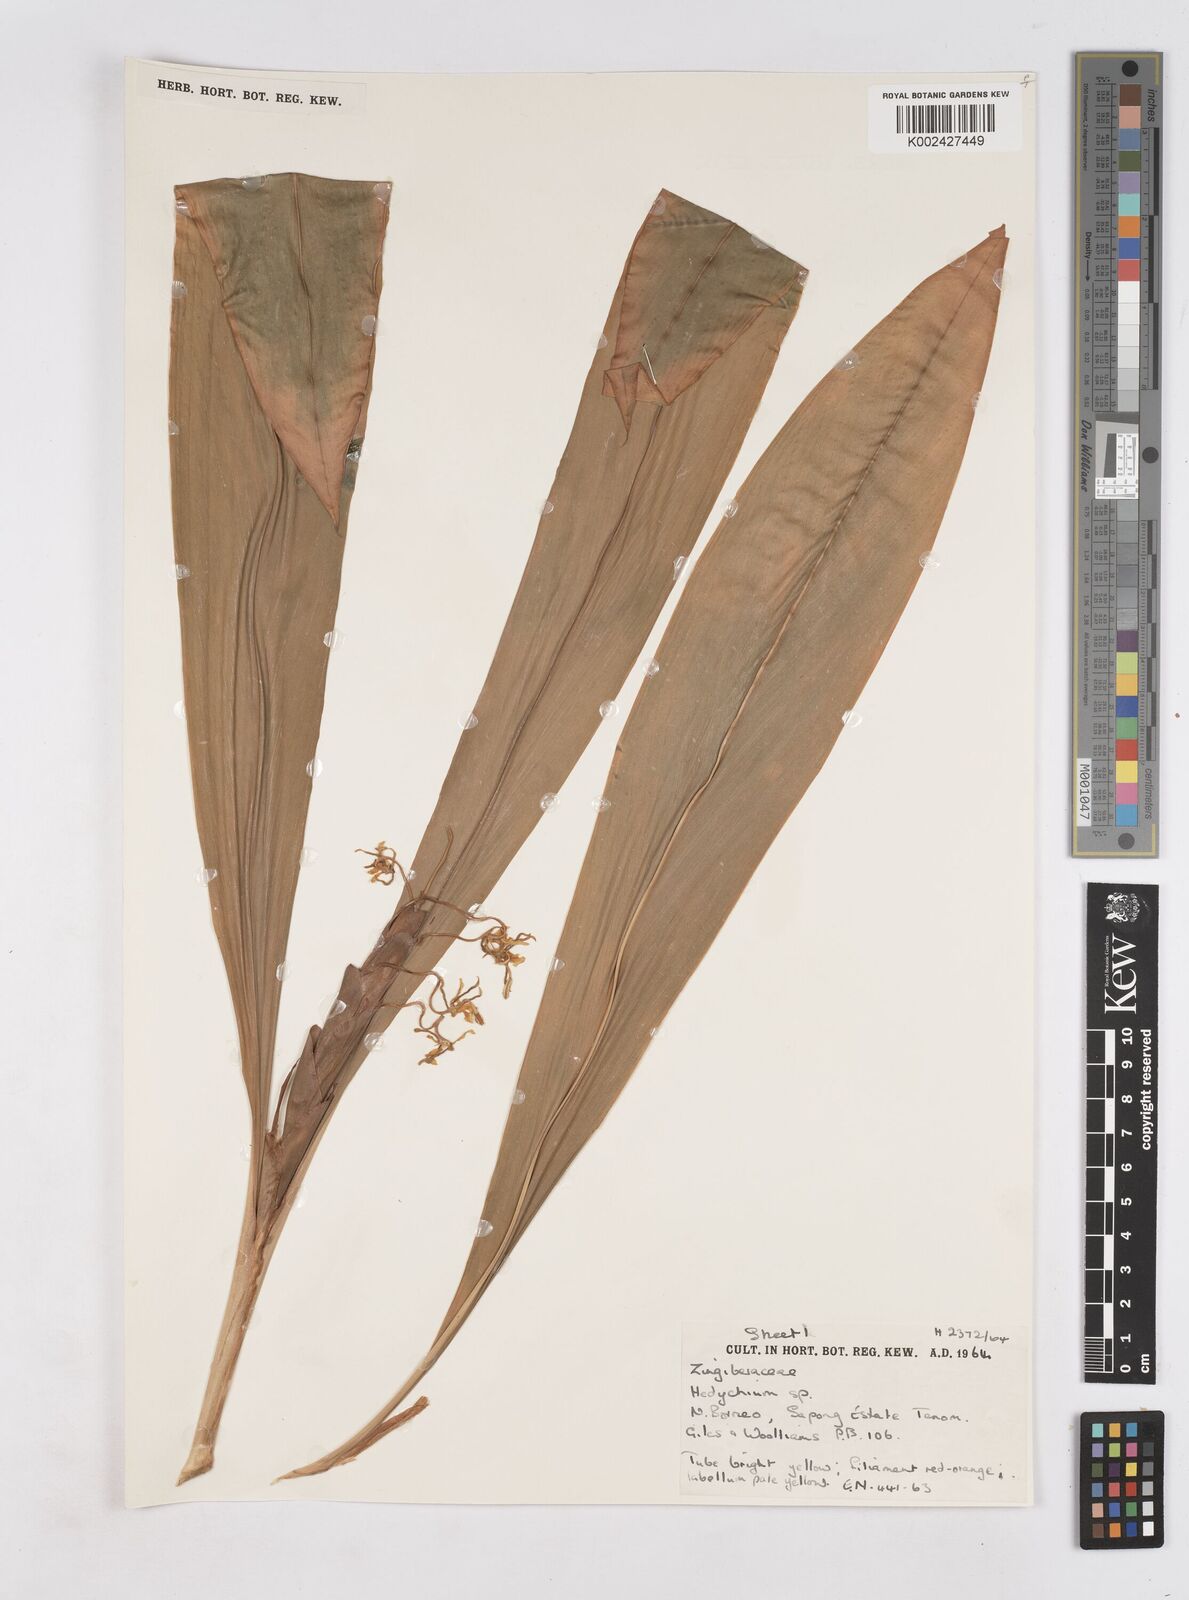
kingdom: Plantae
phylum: Tracheophyta
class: Liliopsida
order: Zingiberales
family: Zingiberaceae
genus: Hedychium
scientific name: Hedychium
